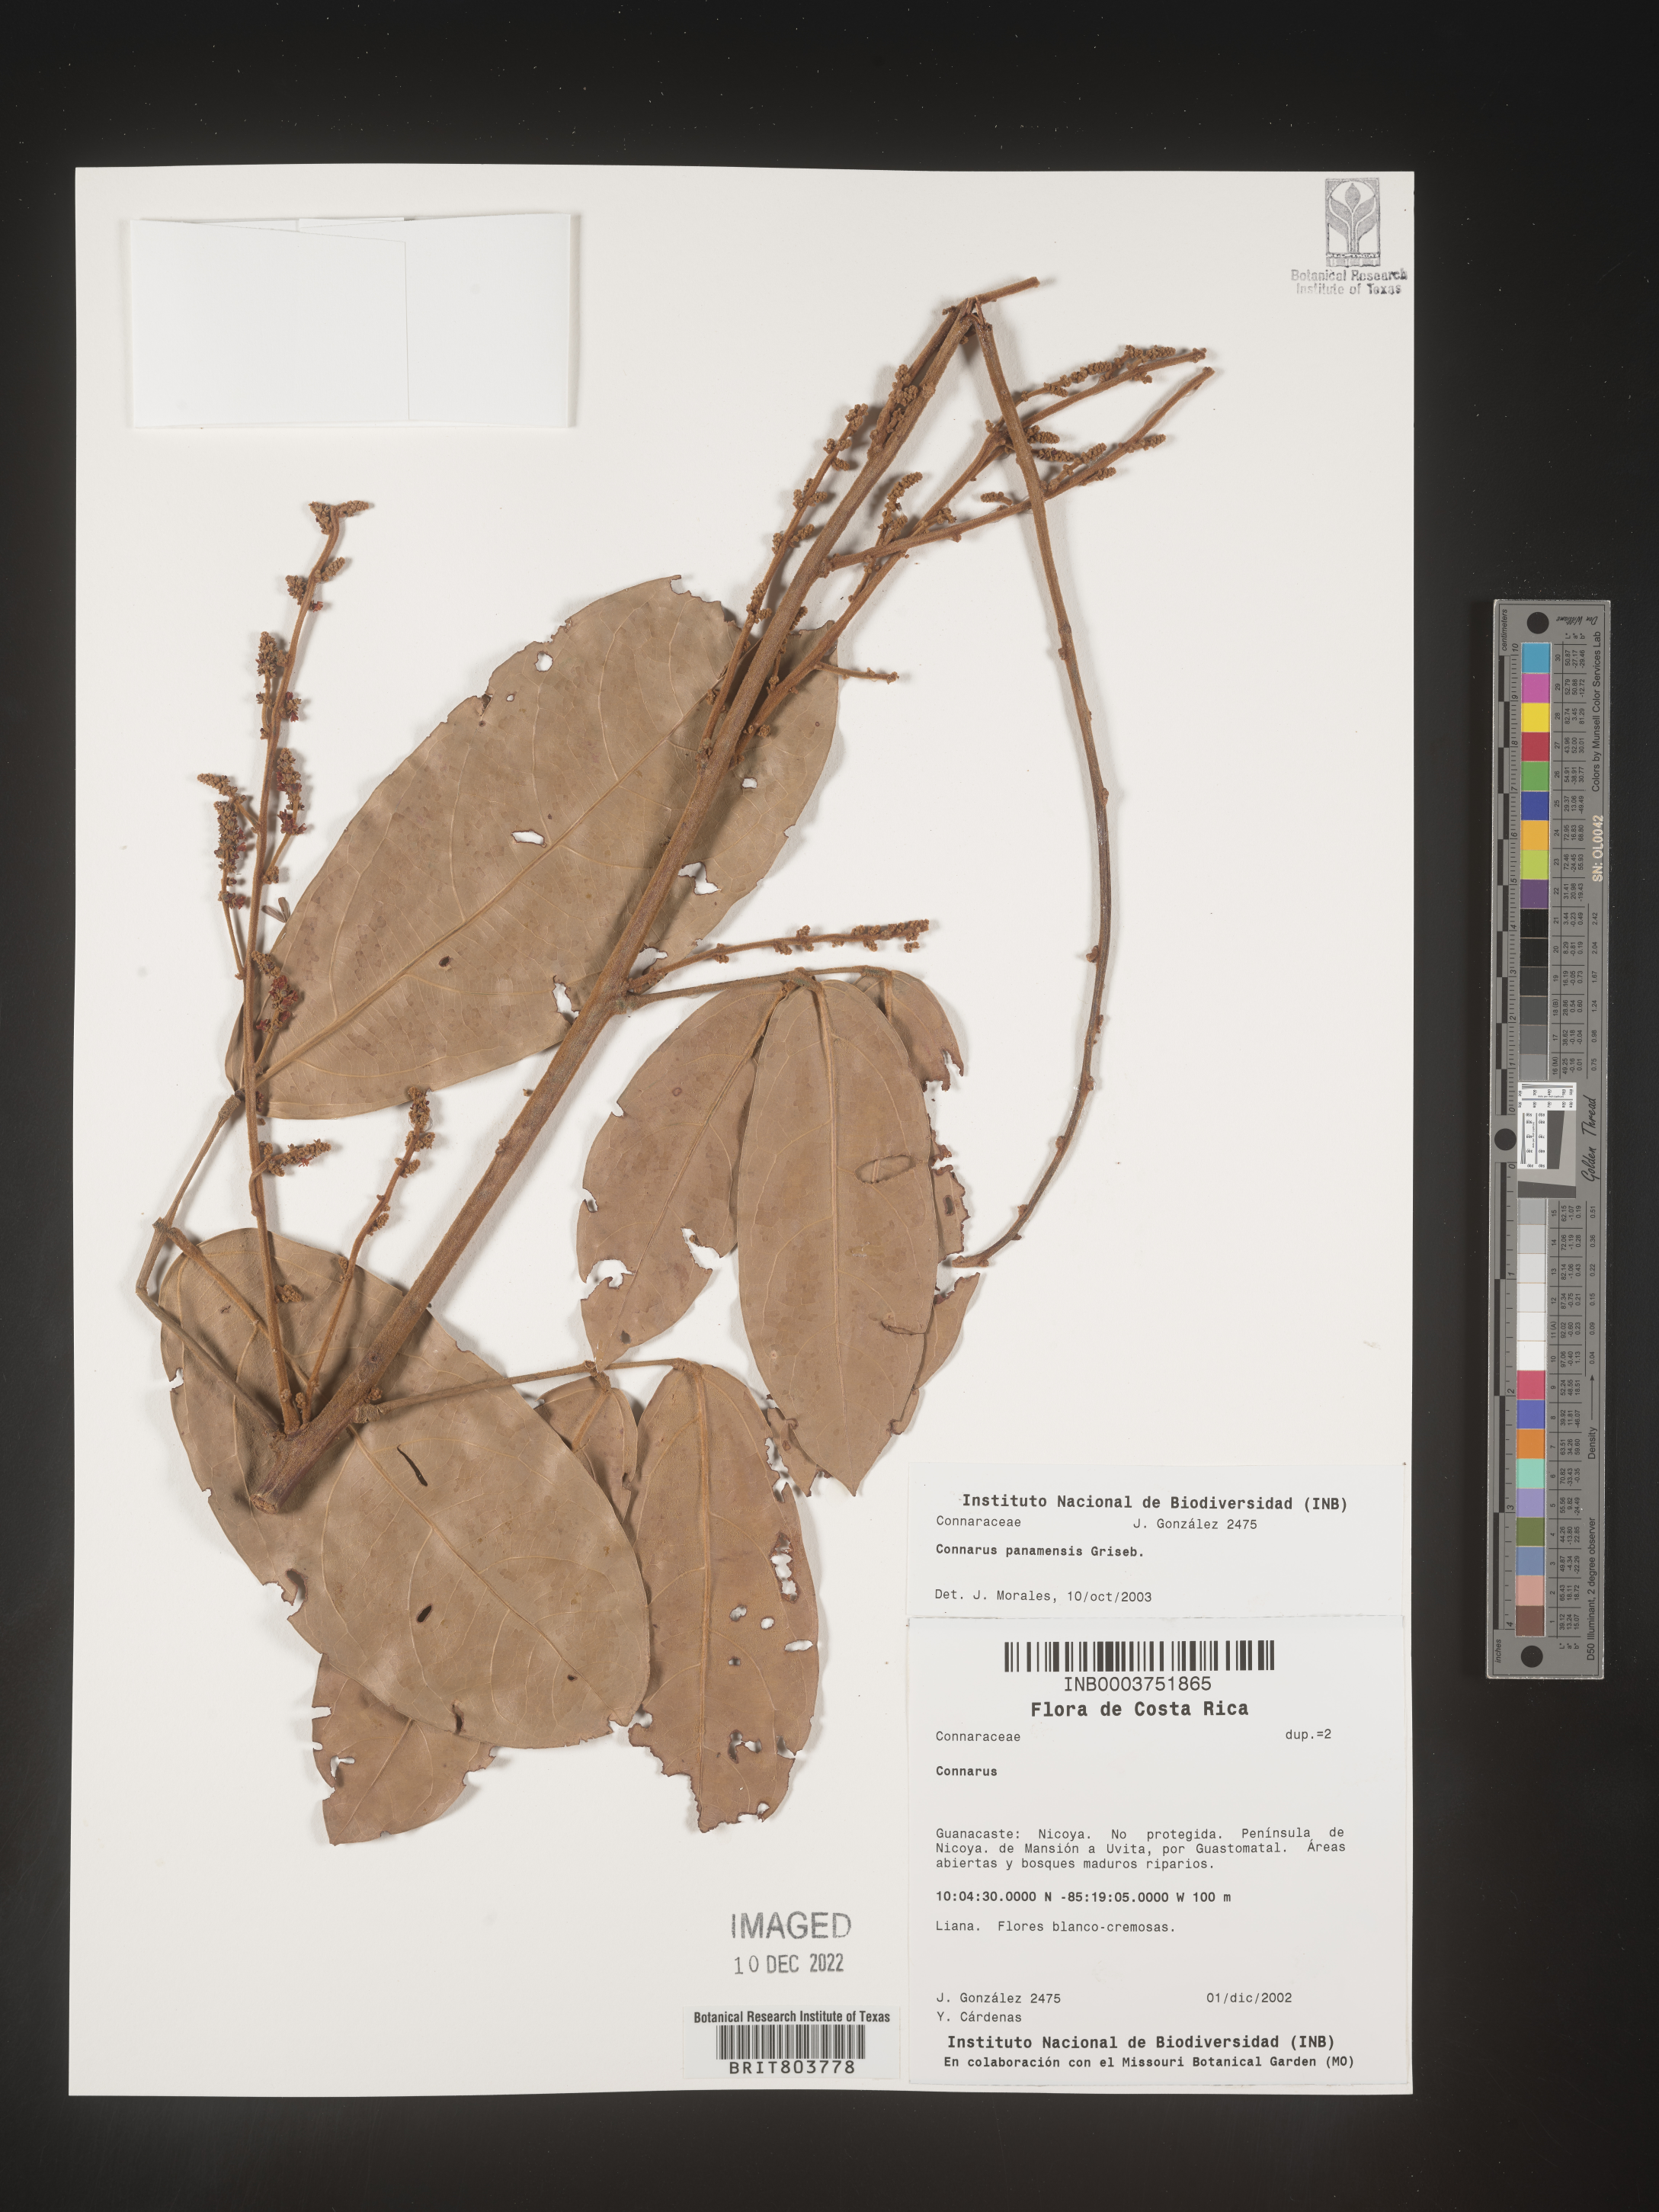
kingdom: Plantae
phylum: Tracheophyta
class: Magnoliopsida
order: Oxalidales
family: Connaraceae
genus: Connarus
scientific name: Connarus
